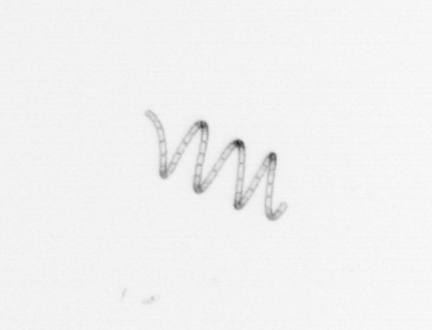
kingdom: Chromista
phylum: Ochrophyta
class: Bacillariophyceae
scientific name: Bacillariophyceae
